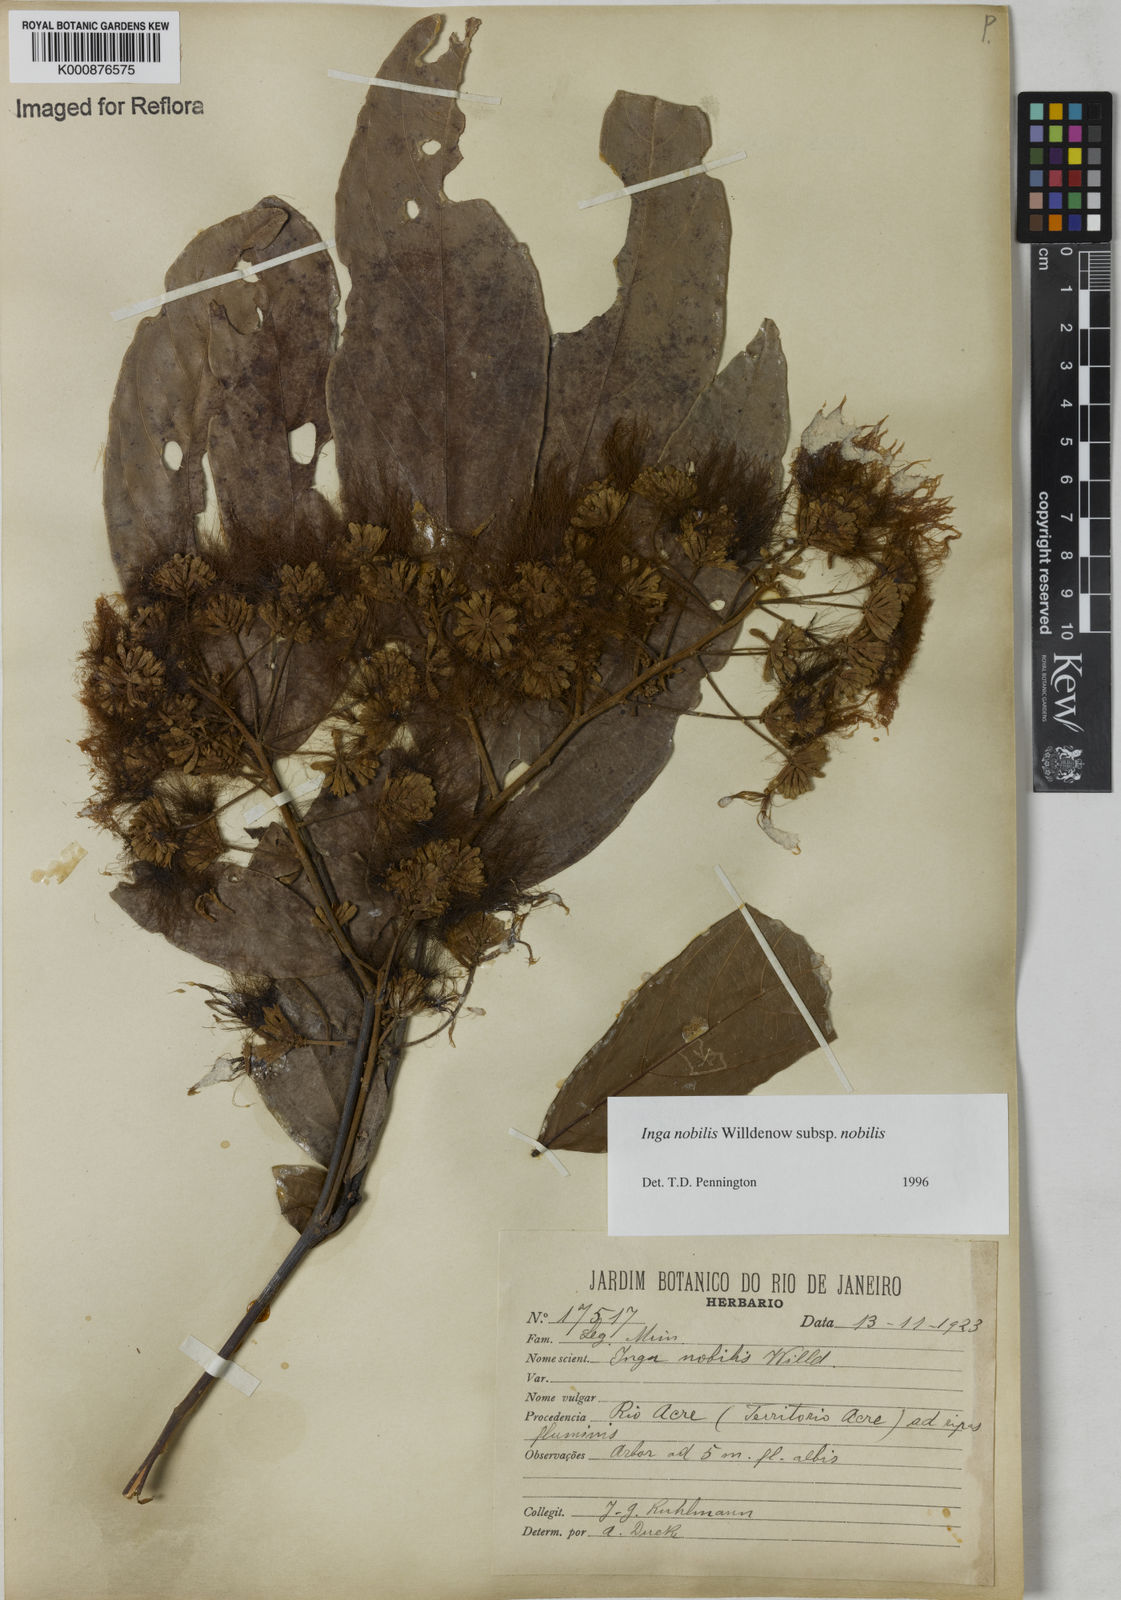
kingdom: Plantae
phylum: Tracheophyta
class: Magnoliopsida
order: Fabales
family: Fabaceae
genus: Inga
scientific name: Inga nobilis
